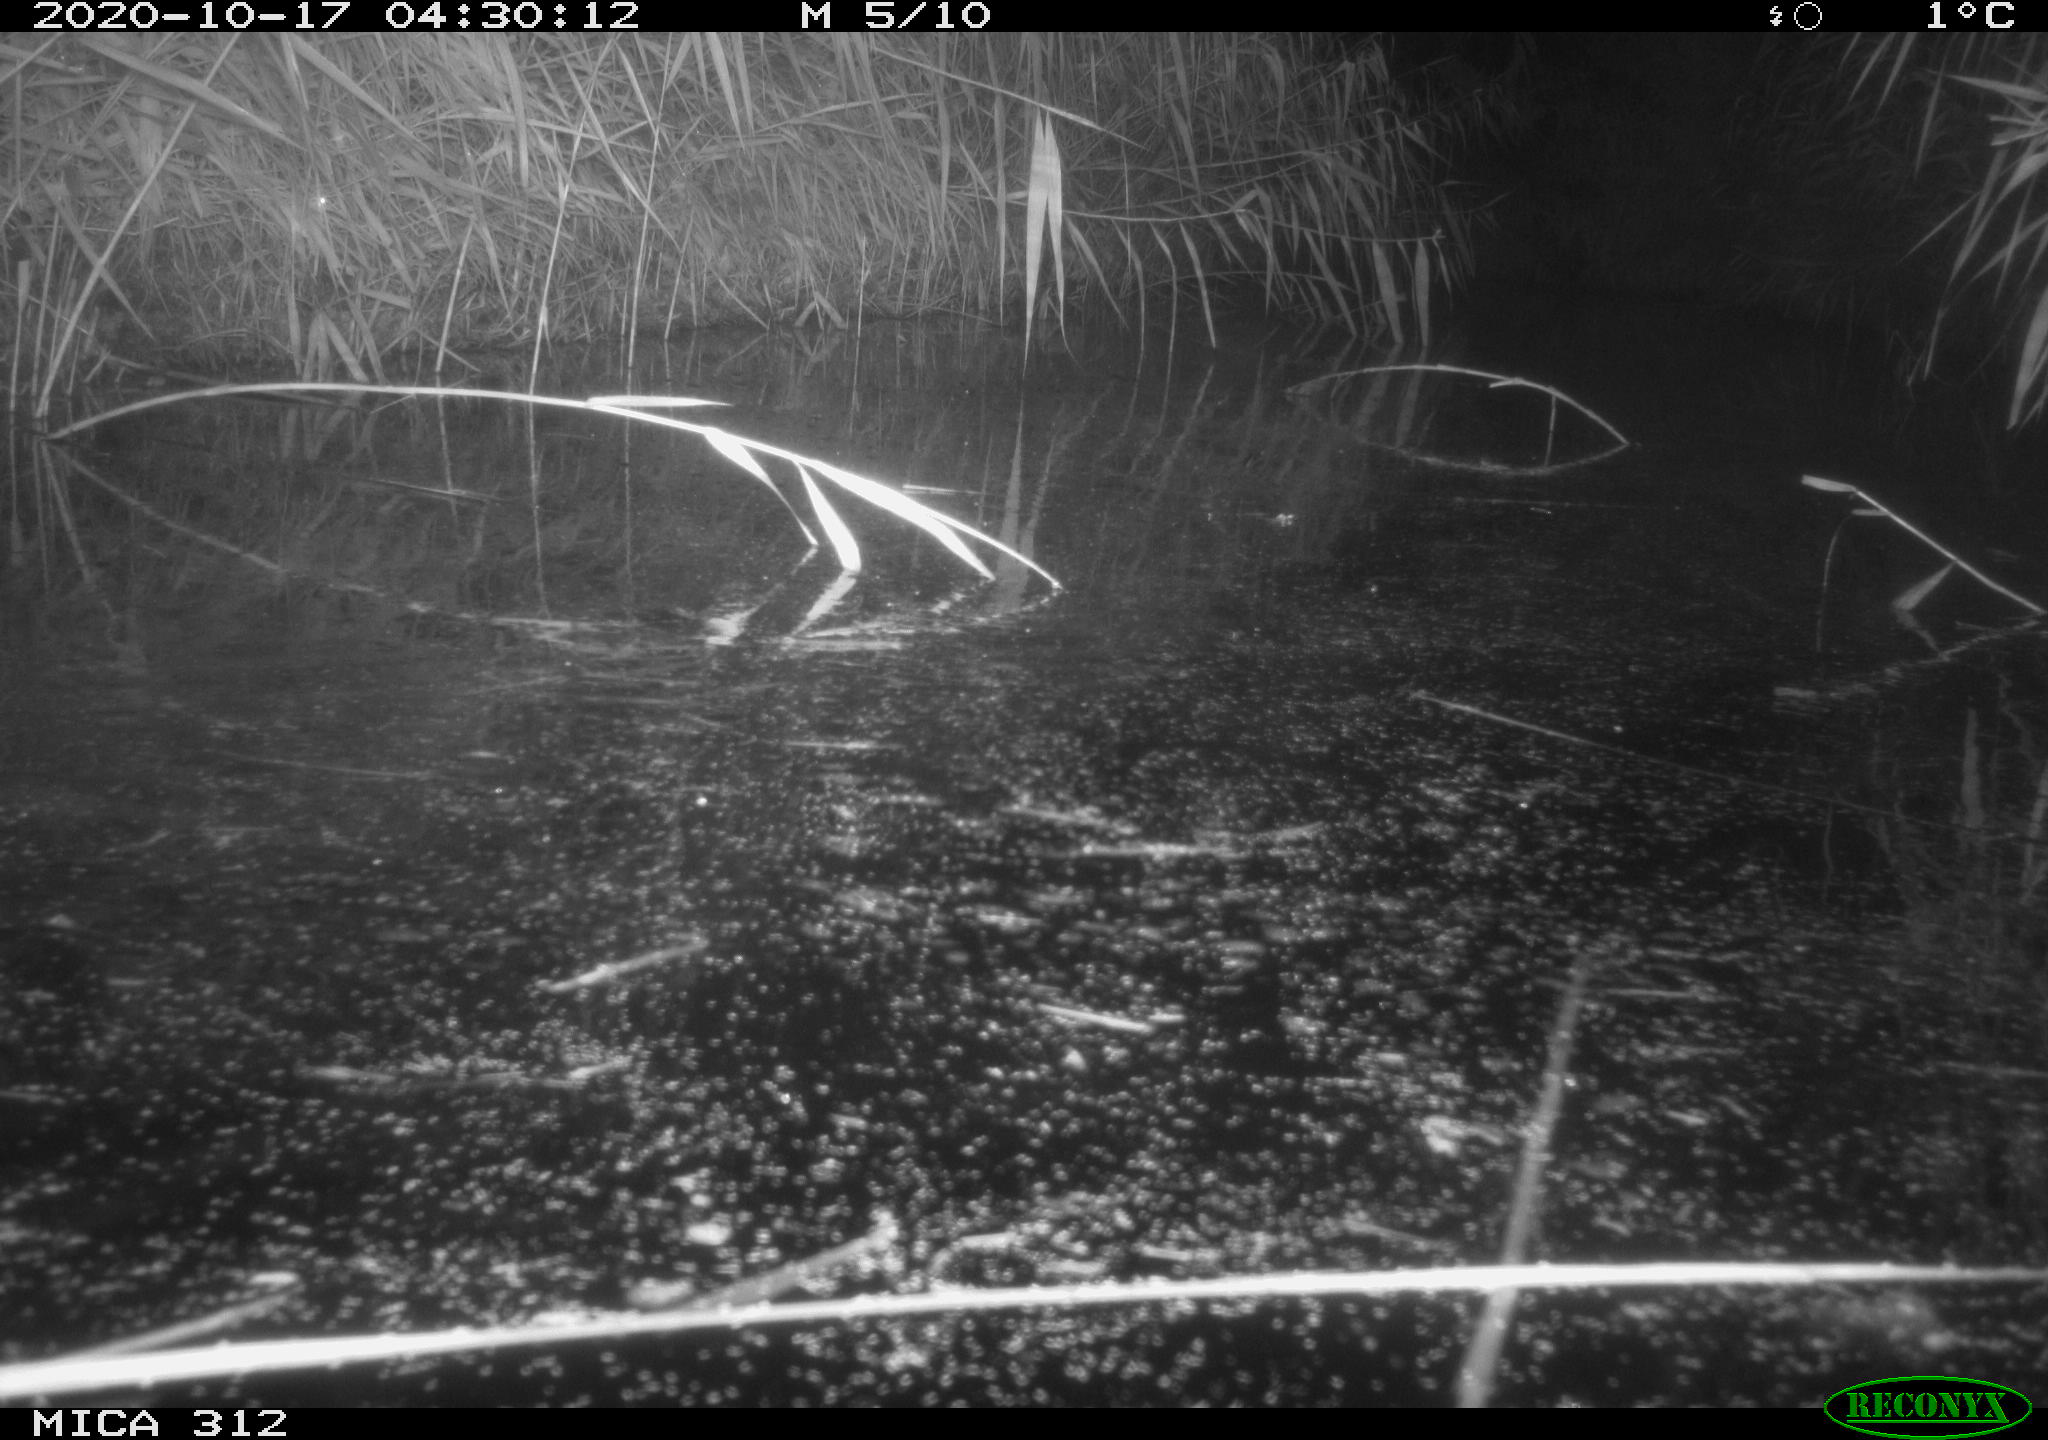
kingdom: Animalia
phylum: Chordata
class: Mammalia
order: Rodentia
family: Muridae
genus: Rattus
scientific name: Rattus norvegicus
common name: Brown rat
